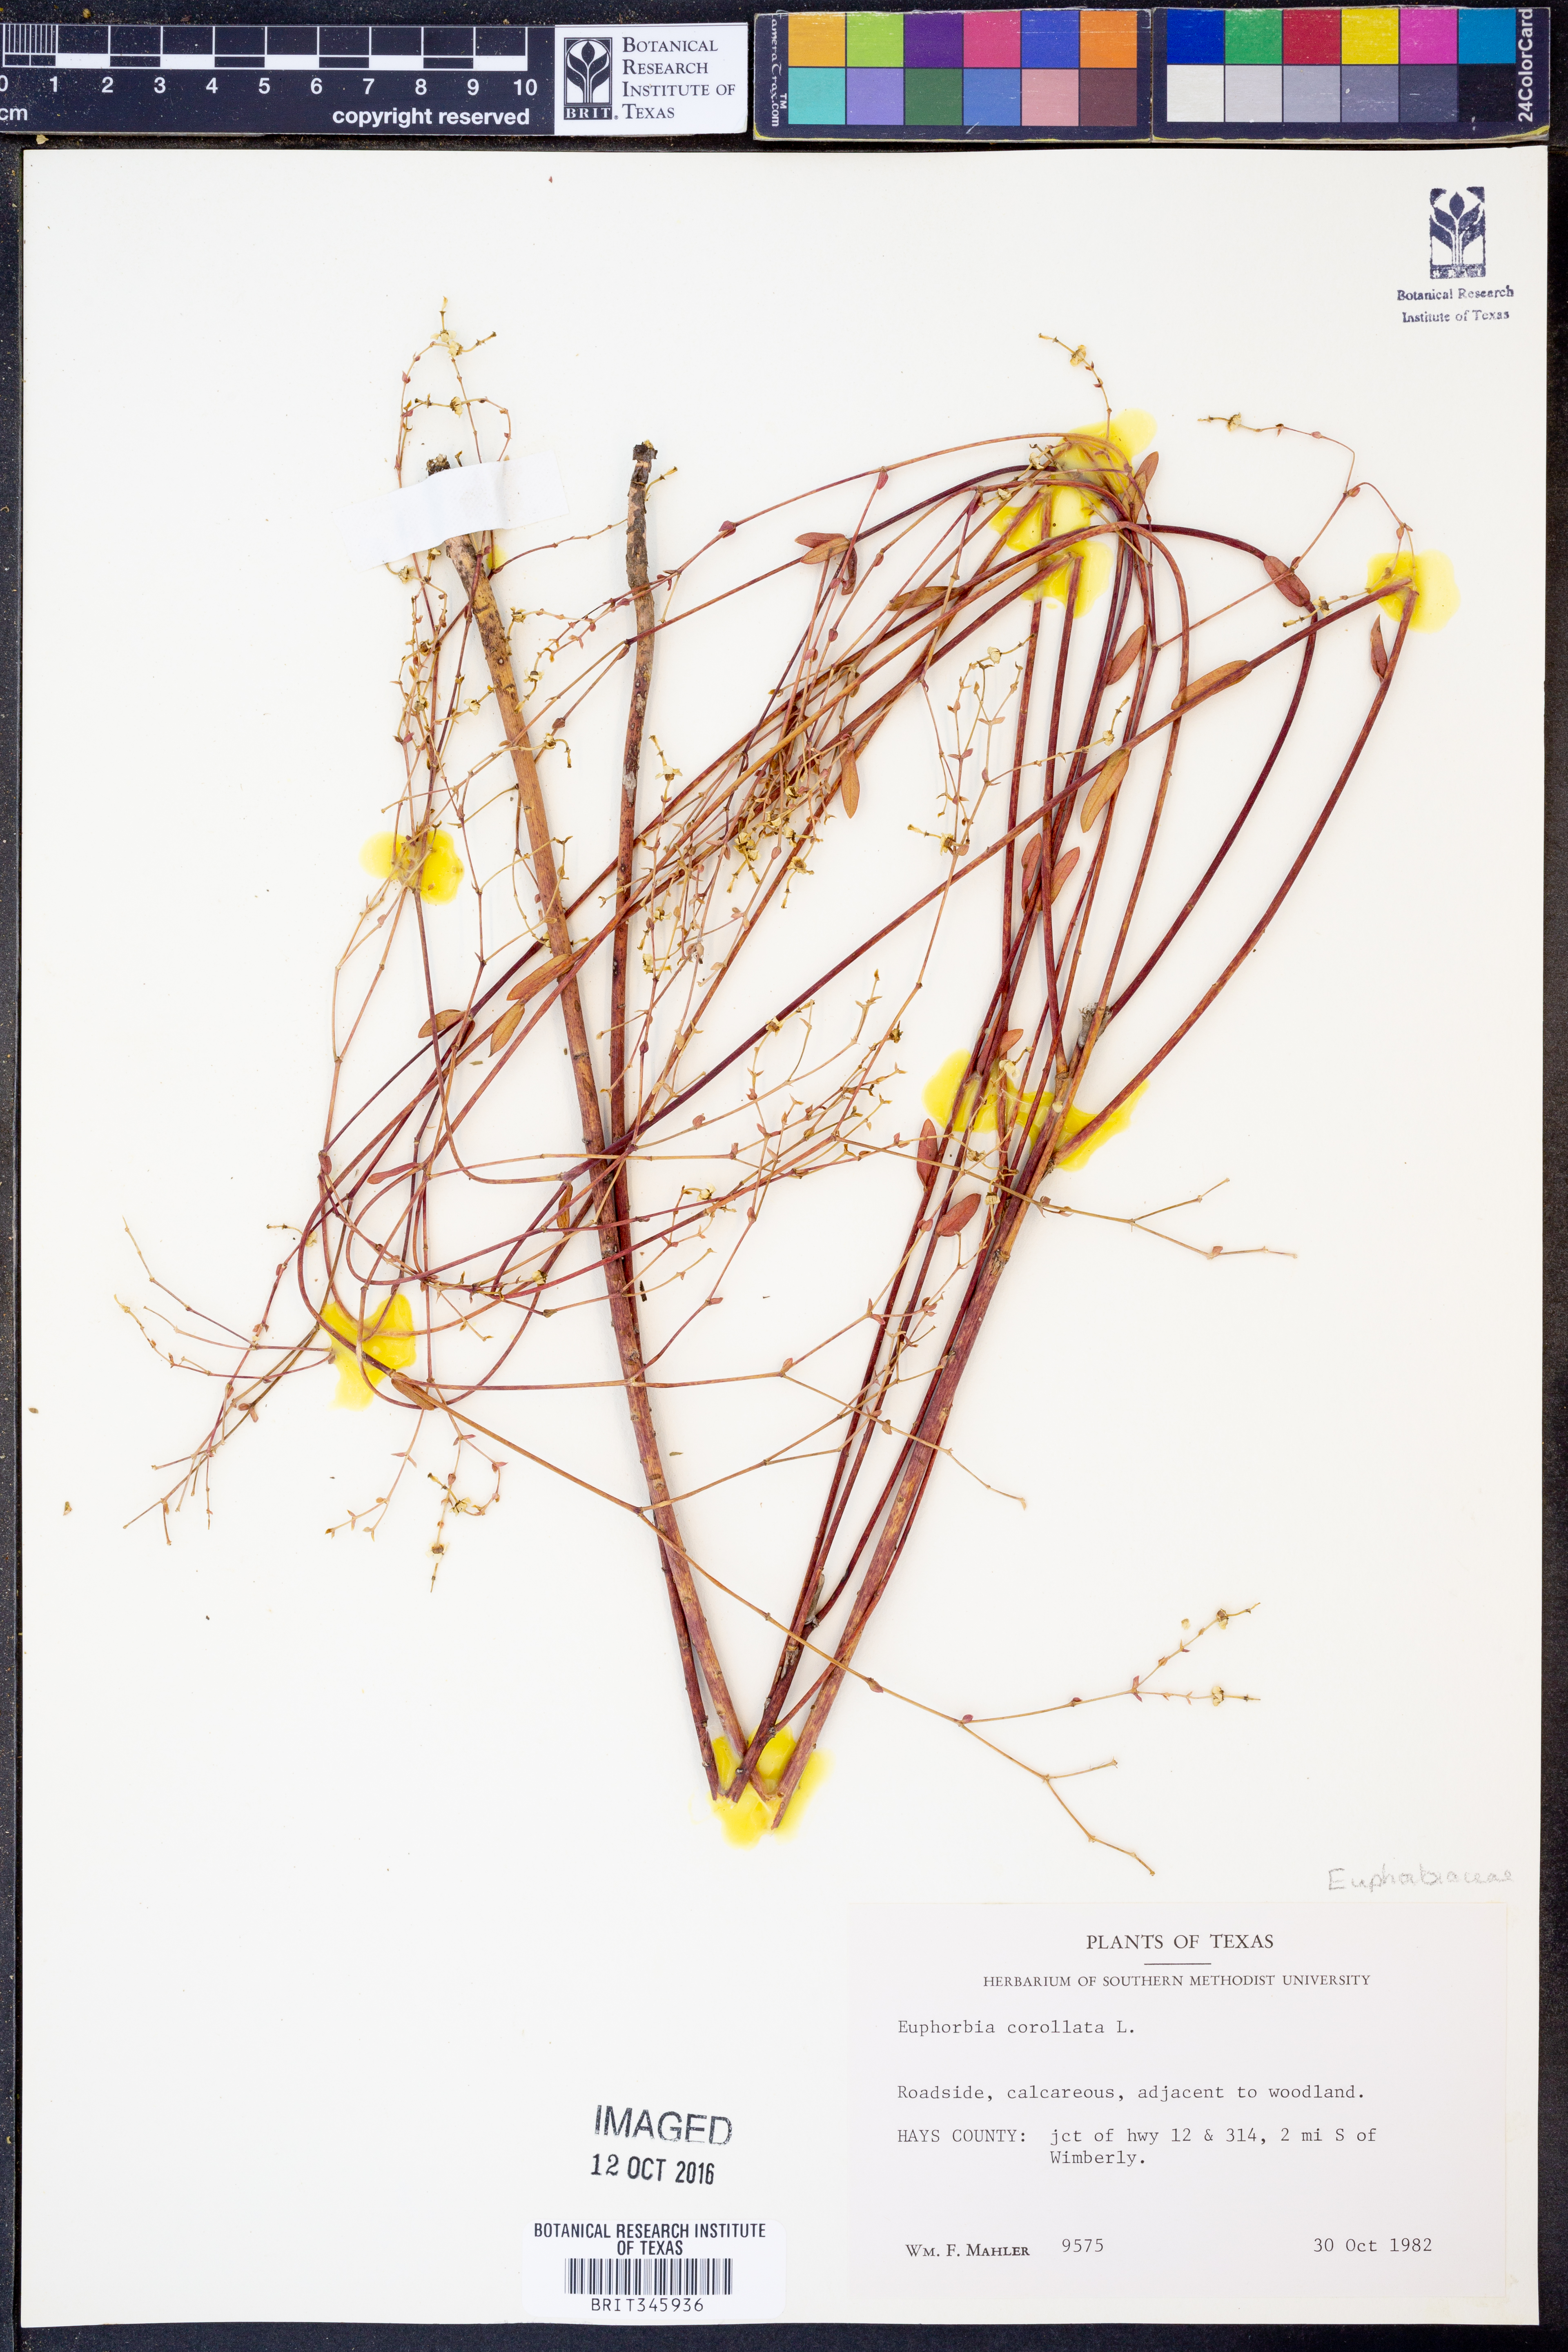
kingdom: Plantae
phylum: Tracheophyta
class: Magnoliopsida
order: Malpighiales
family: Euphorbiaceae
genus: Euphorbia
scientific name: Euphorbia corollata
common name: Flowering spurge
